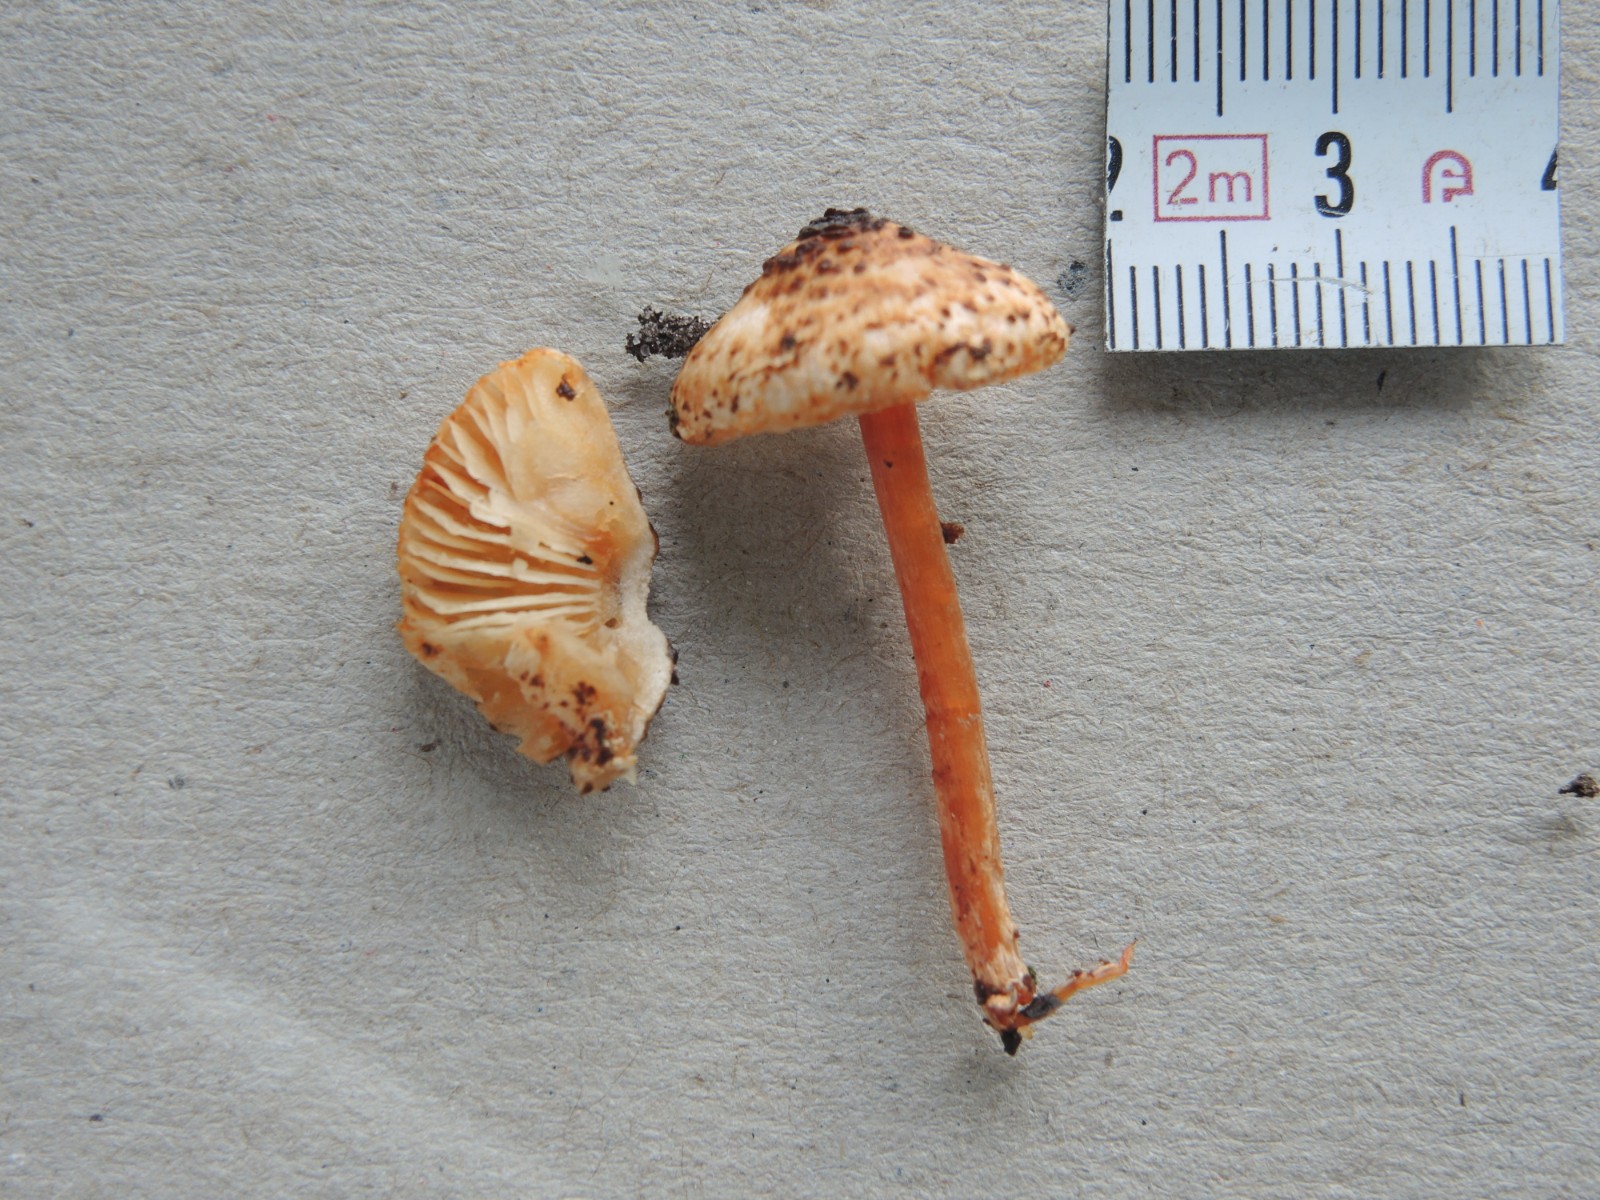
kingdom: Fungi
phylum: Basidiomycota
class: Agaricomycetes
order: Agaricales
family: Agaricaceae
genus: Lepiota
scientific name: Lepiota castanea
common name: kastaniebrun parasolhat
